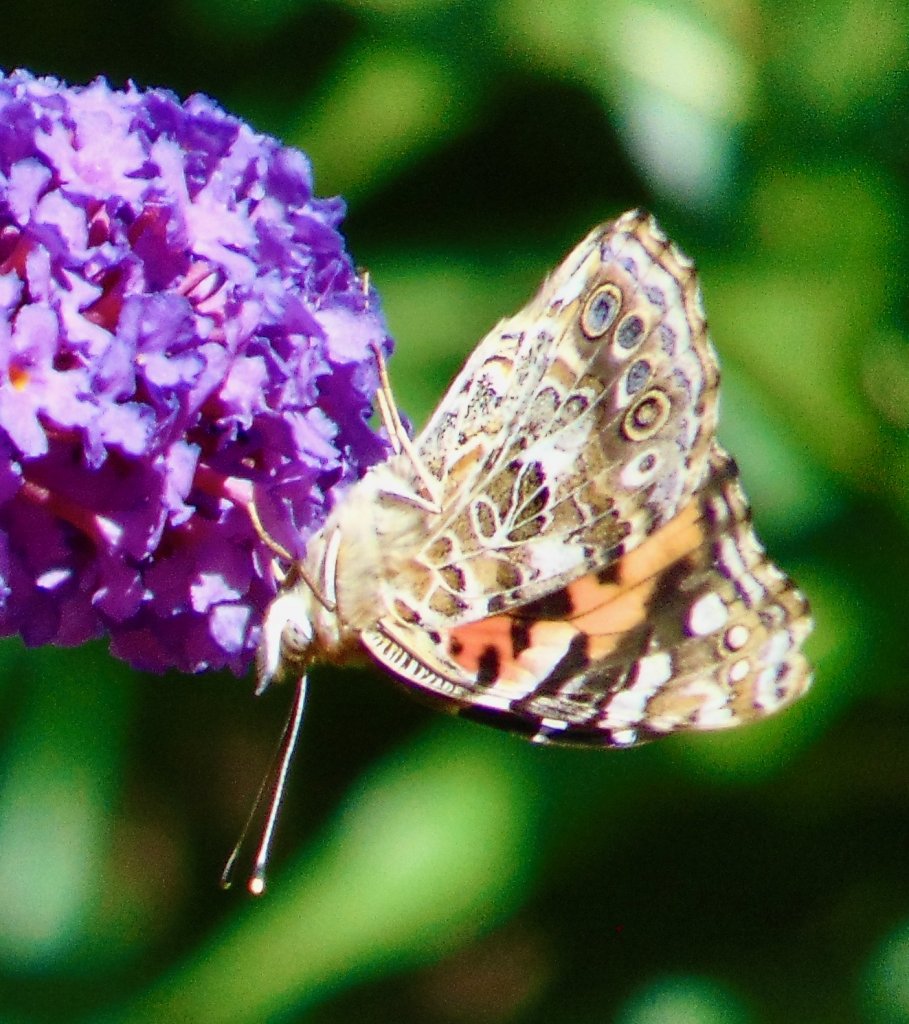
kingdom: Animalia
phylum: Arthropoda
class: Insecta
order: Lepidoptera
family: Nymphalidae
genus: Vanessa
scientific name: Vanessa cardui
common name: Painted Lady
